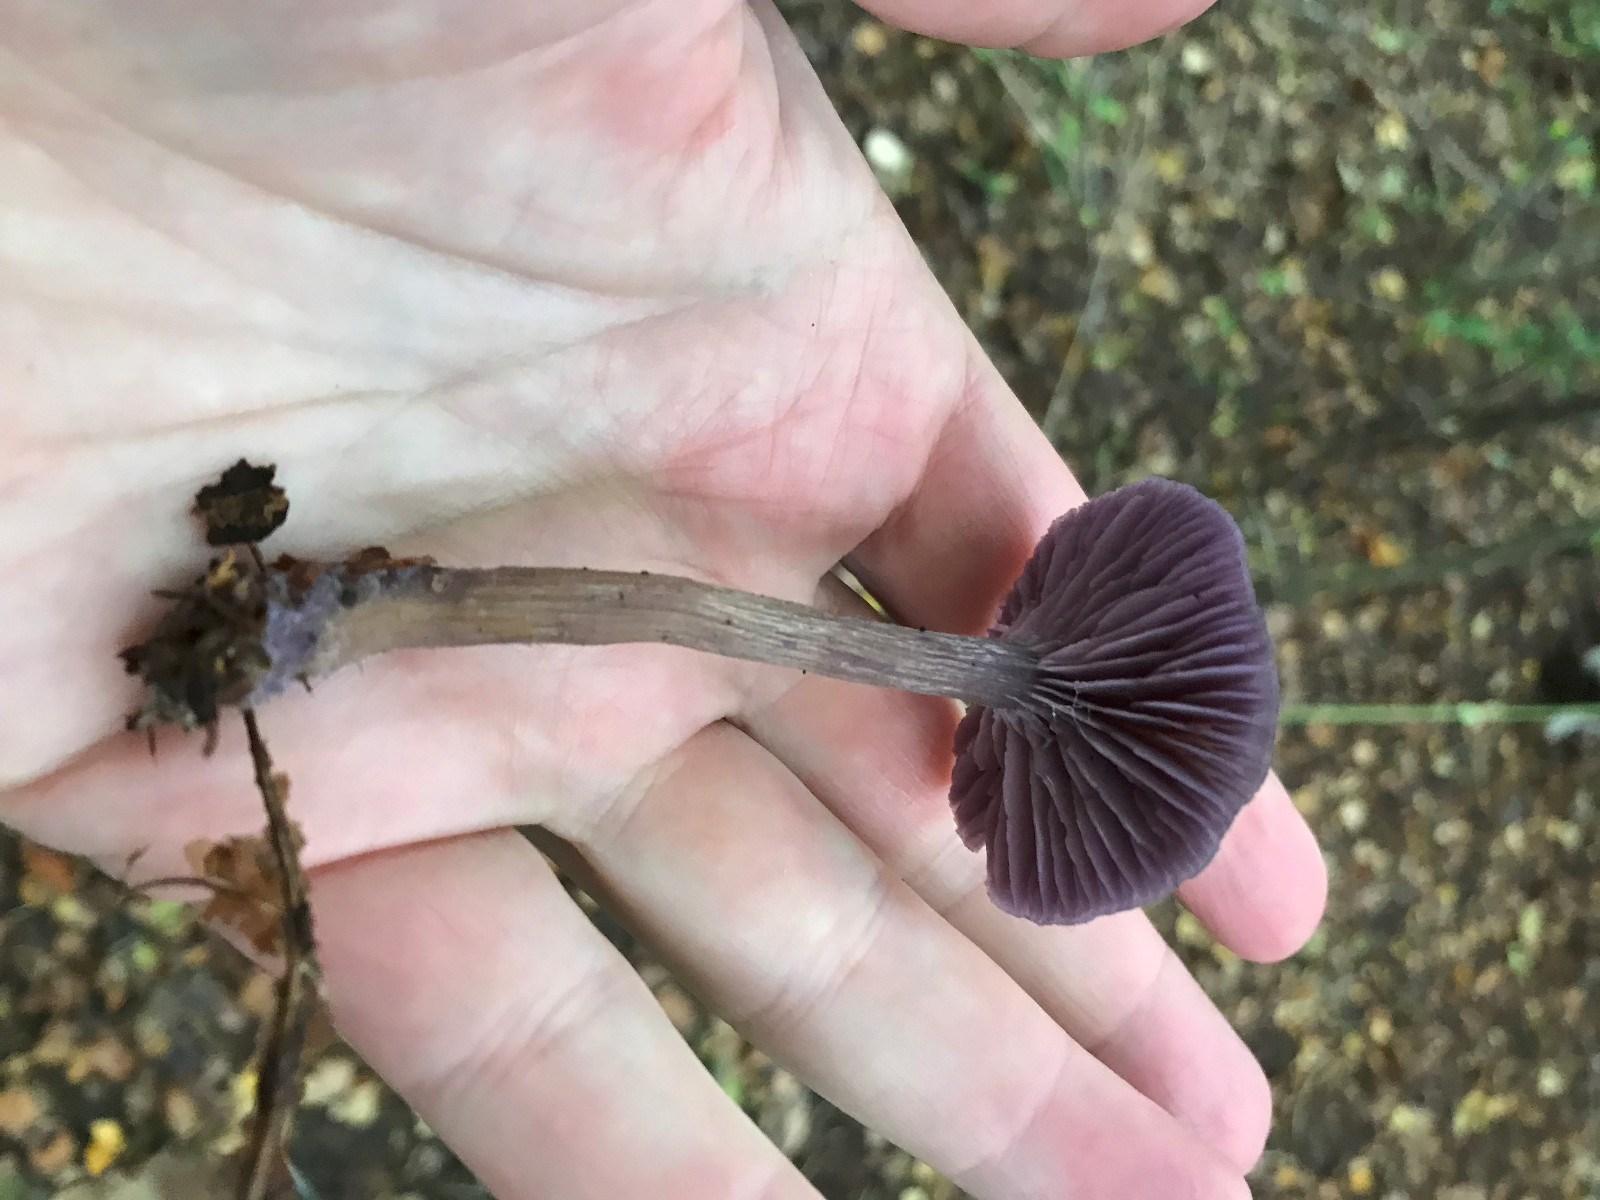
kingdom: Fungi
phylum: Basidiomycota
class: Agaricomycetes
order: Agaricales
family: Hydnangiaceae
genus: Laccaria
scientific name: Laccaria amethystina
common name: violet ametysthat
